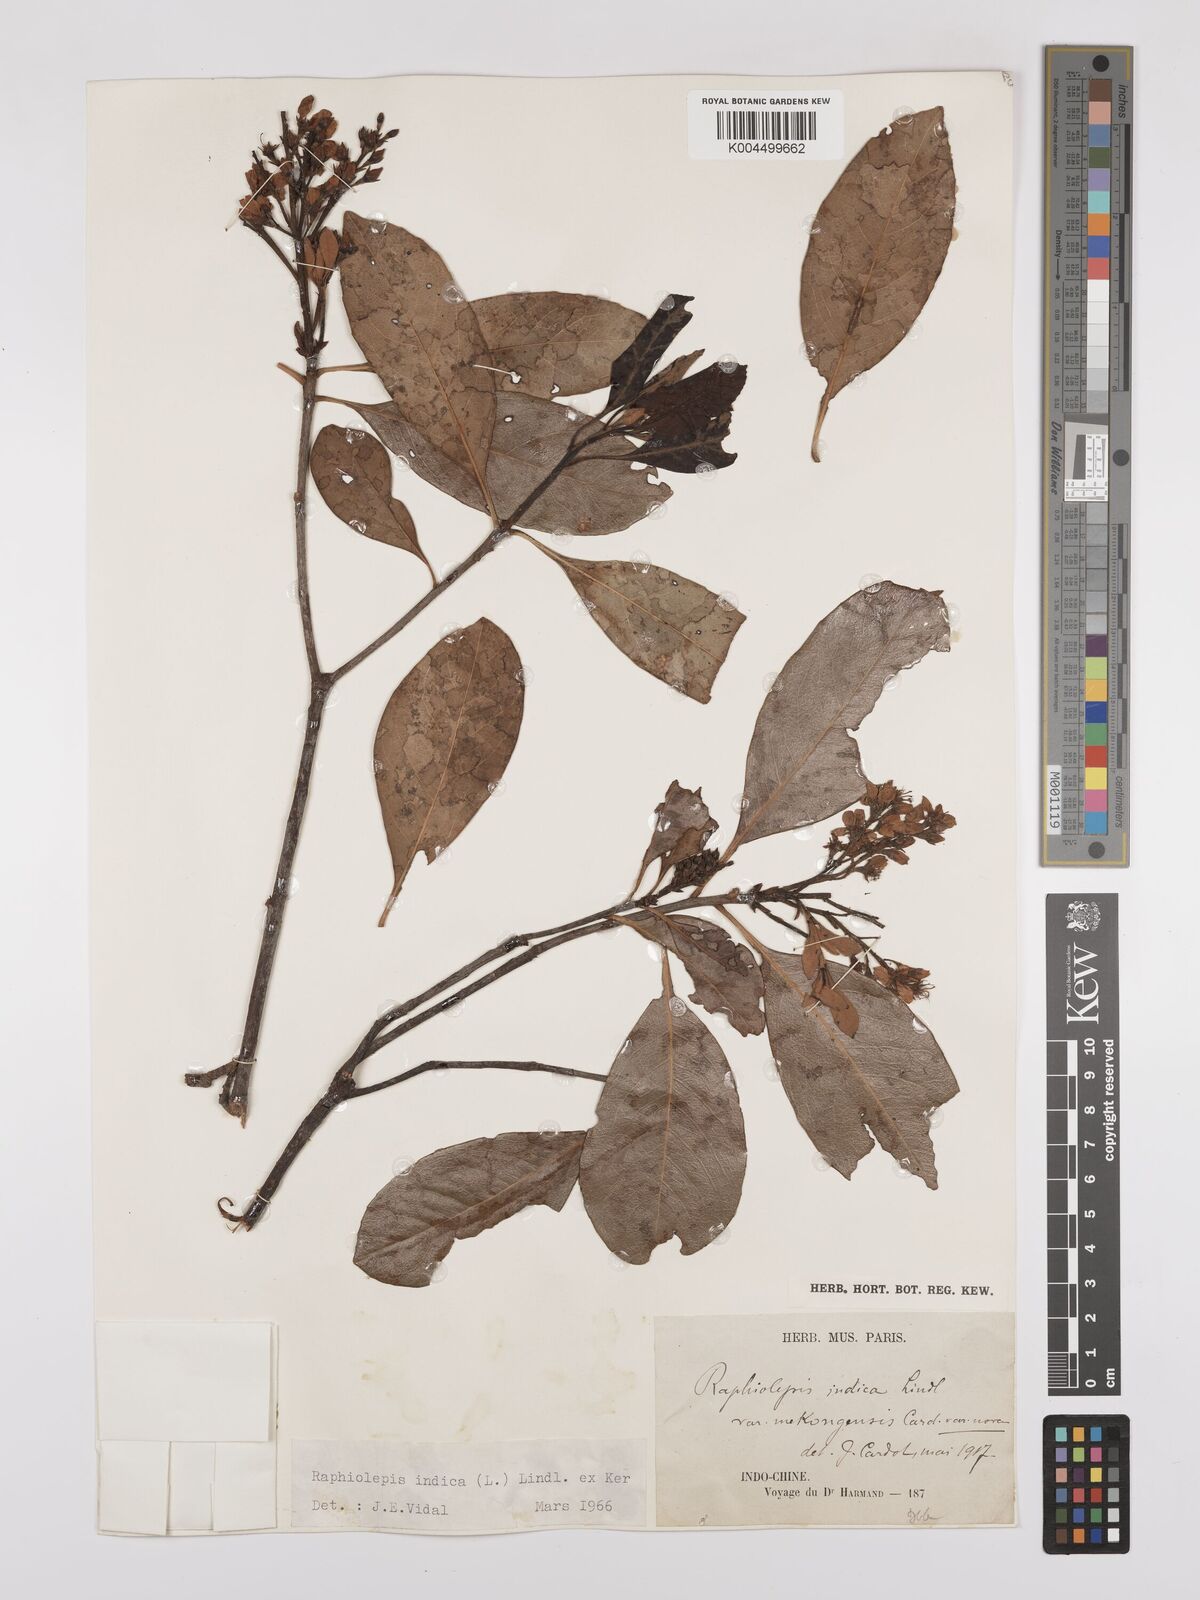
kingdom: Plantae
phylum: Tracheophyta
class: Magnoliopsida
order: Rosales
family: Rosaceae
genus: Rhaphiolepis
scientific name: Rhaphiolepis indica
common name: India-hawthorn
